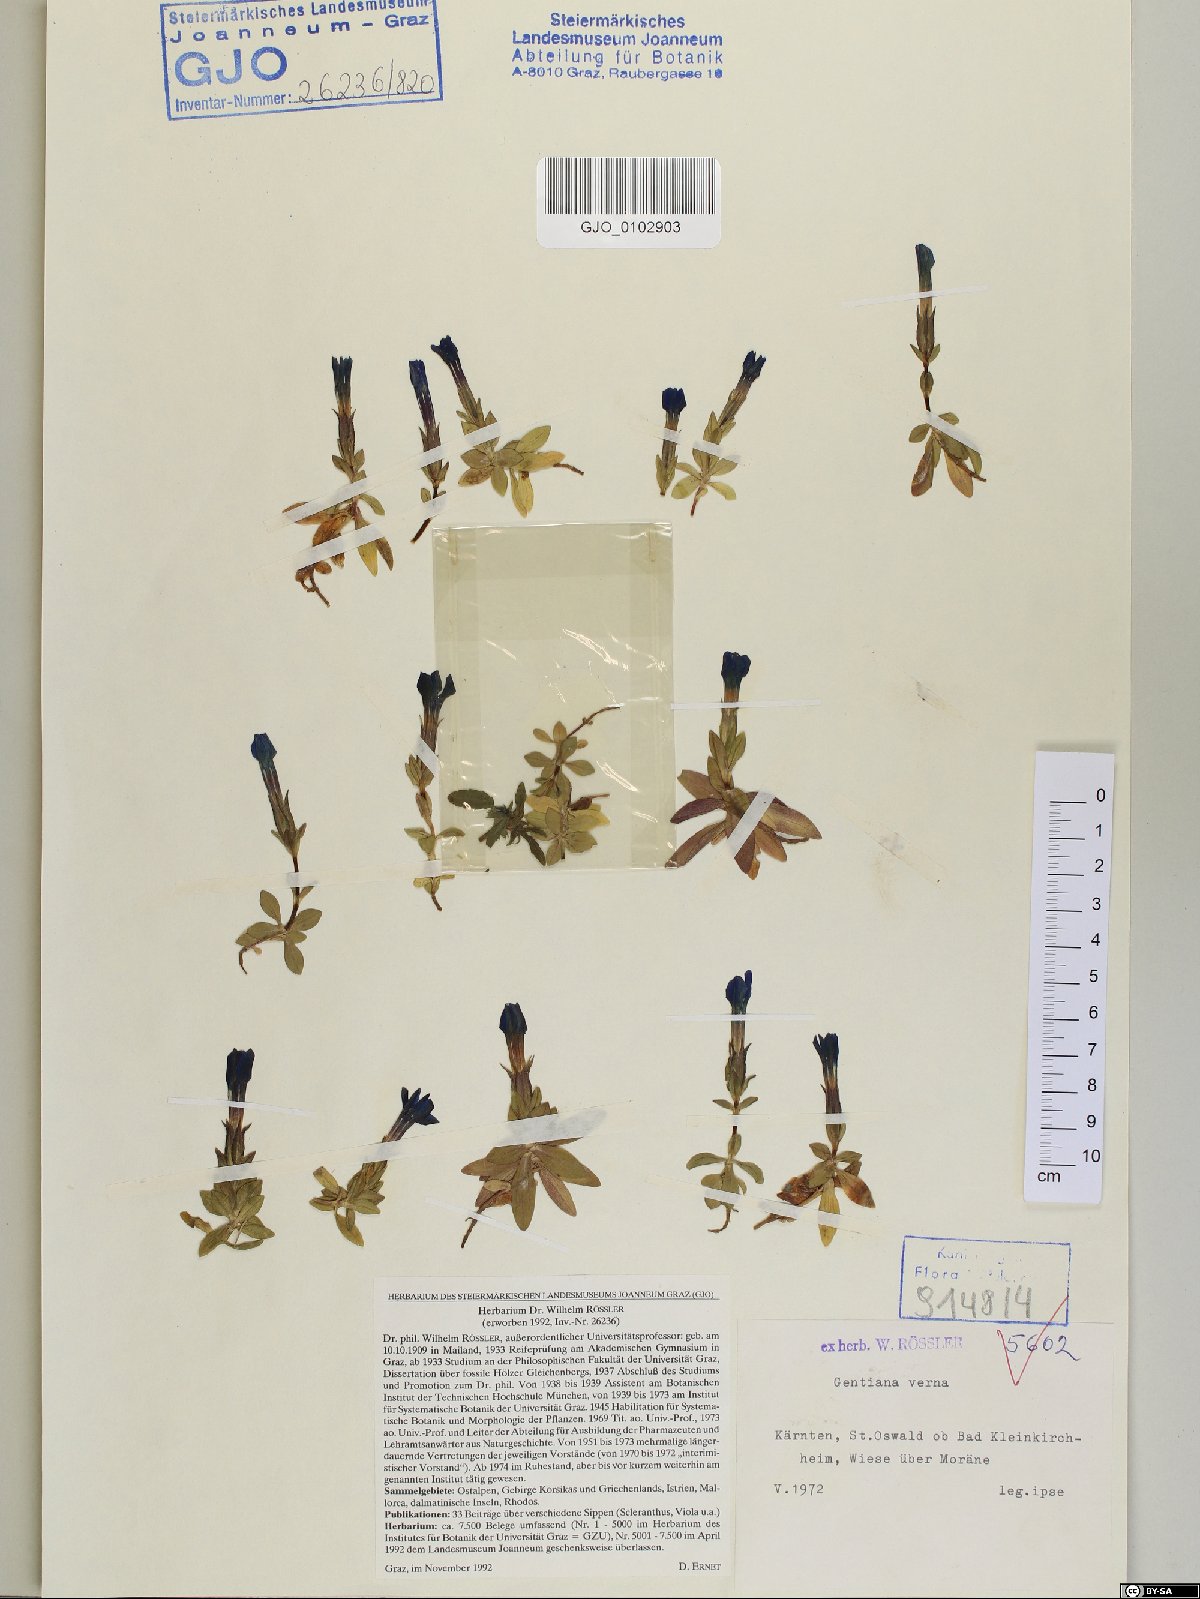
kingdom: Plantae
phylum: Tracheophyta
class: Magnoliopsida
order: Gentianales
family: Gentianaceae
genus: Gentiana
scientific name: Gentiana verna
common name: Spring gentian
